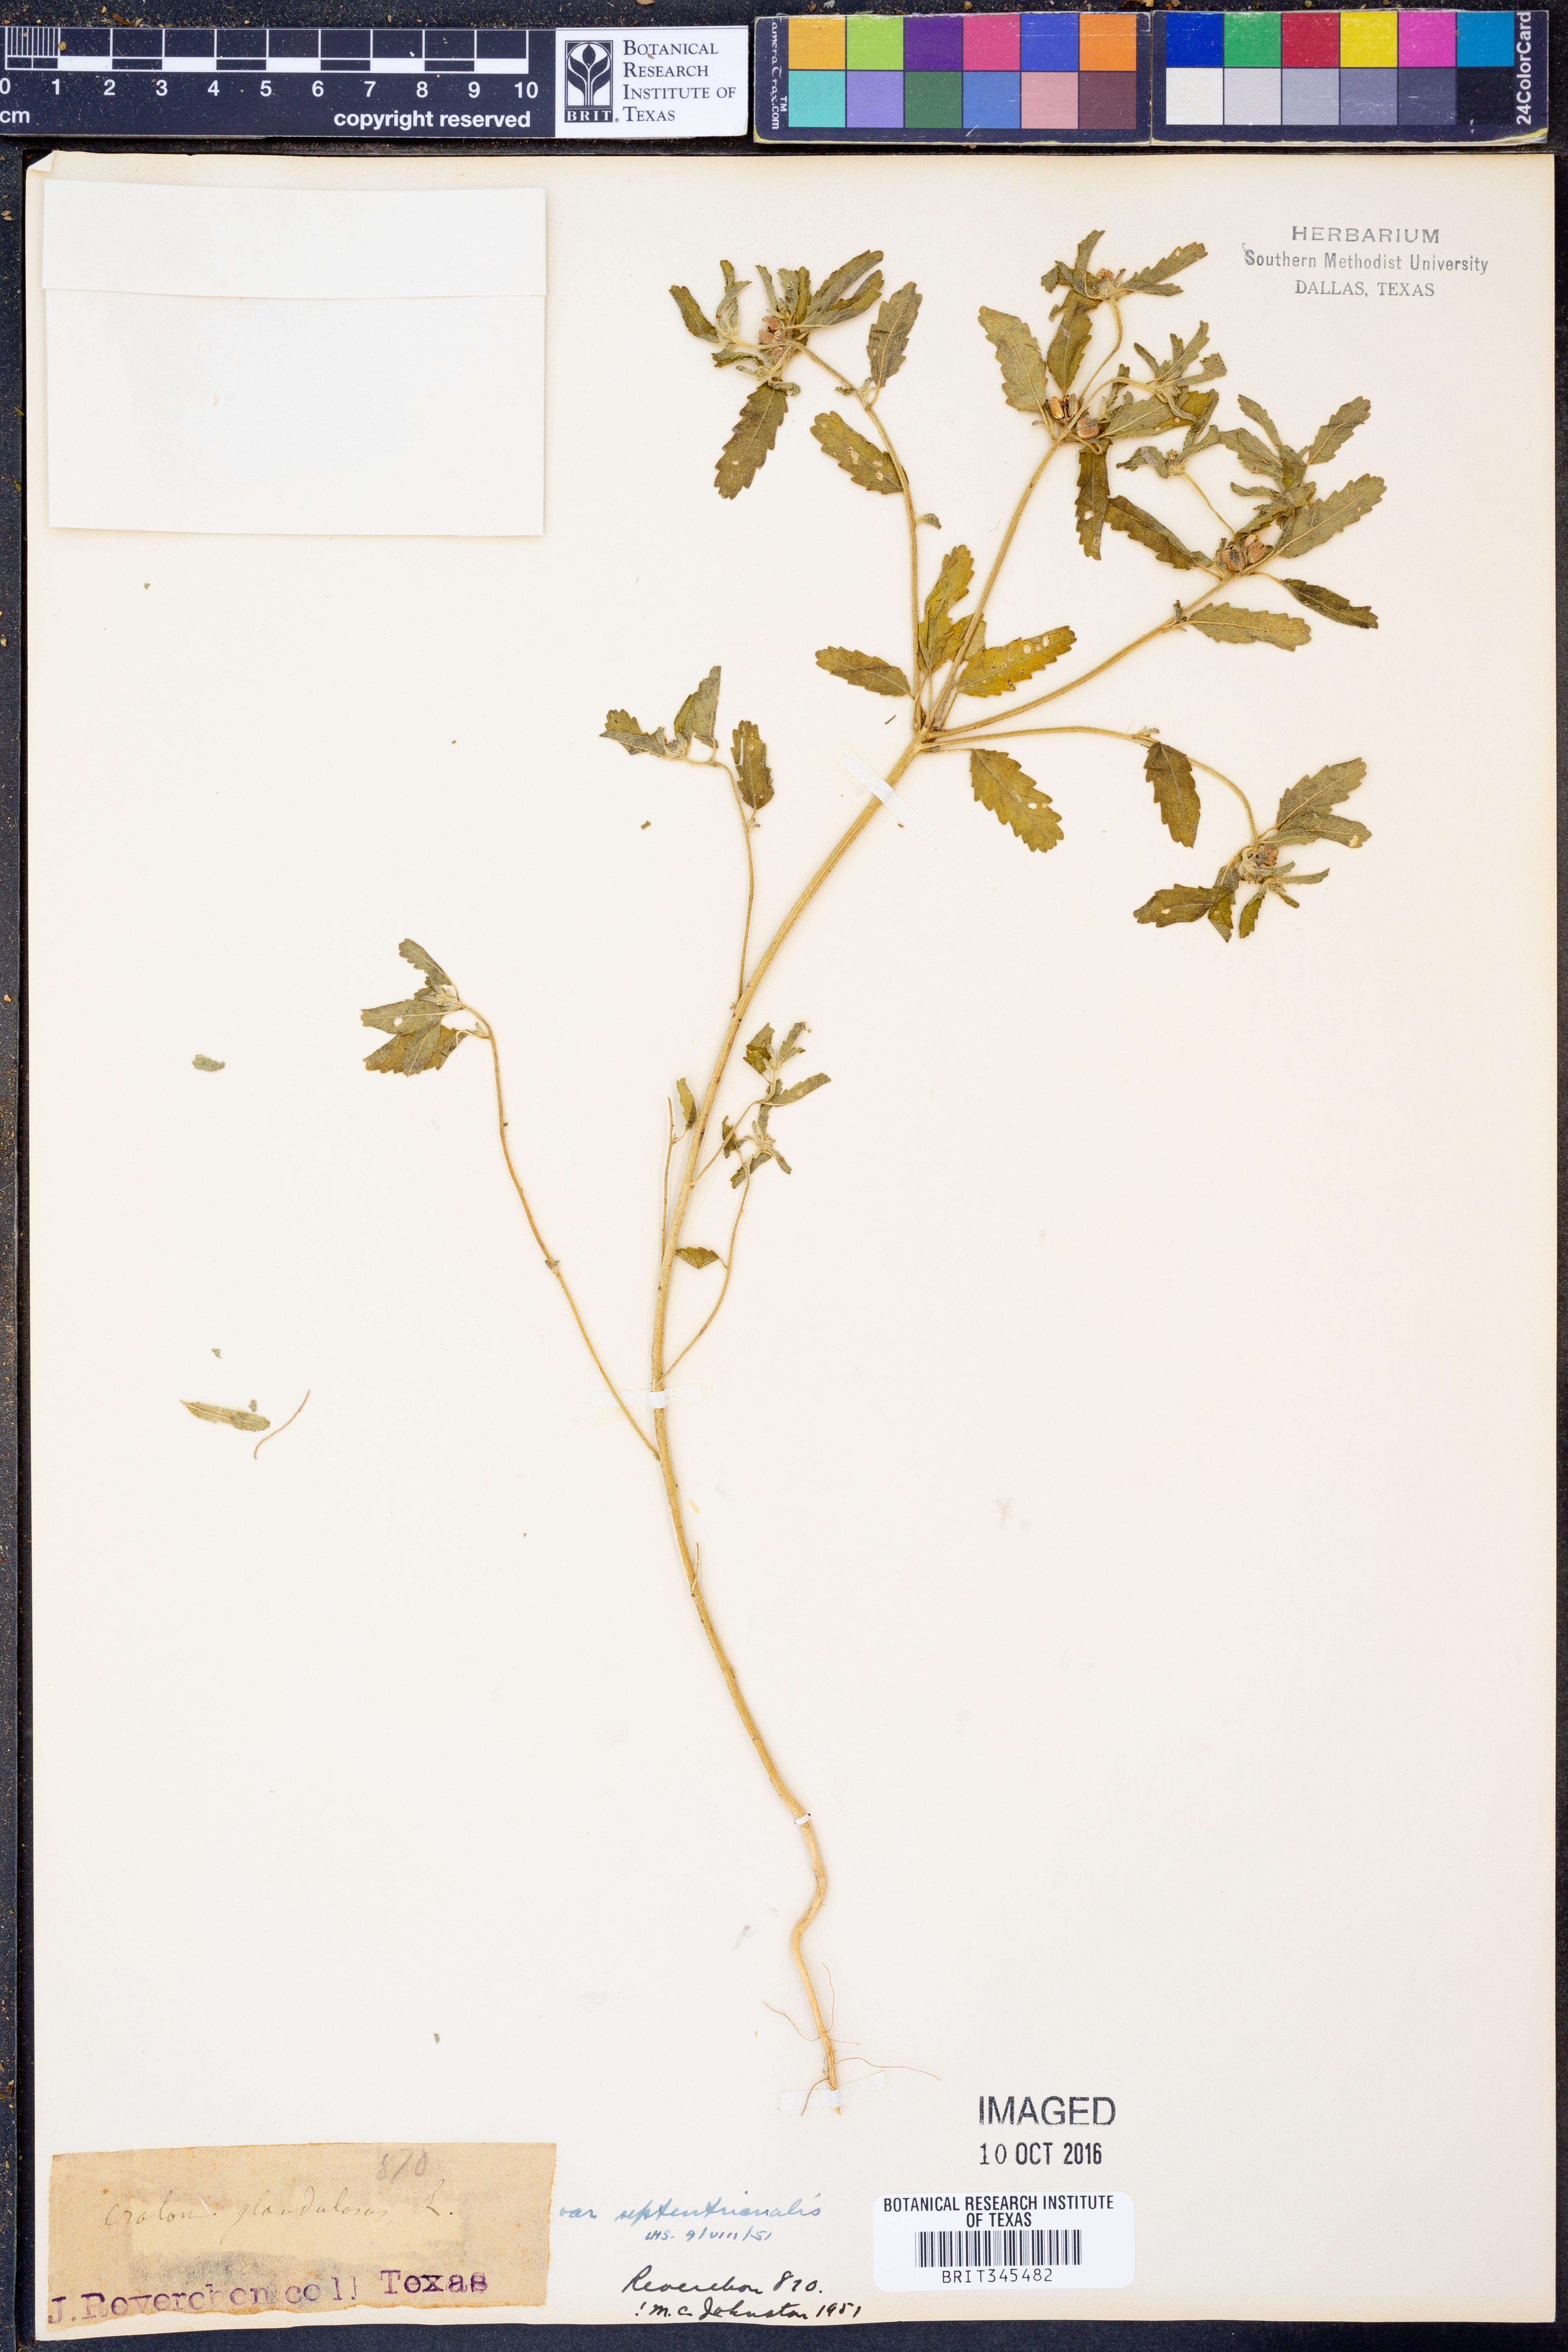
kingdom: Plantae
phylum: Tracheophyta
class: Magnoliopsida
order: Malpighiales
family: Euphorbiaceae
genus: Croton
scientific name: Croton glandulosus
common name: Tropic croton
